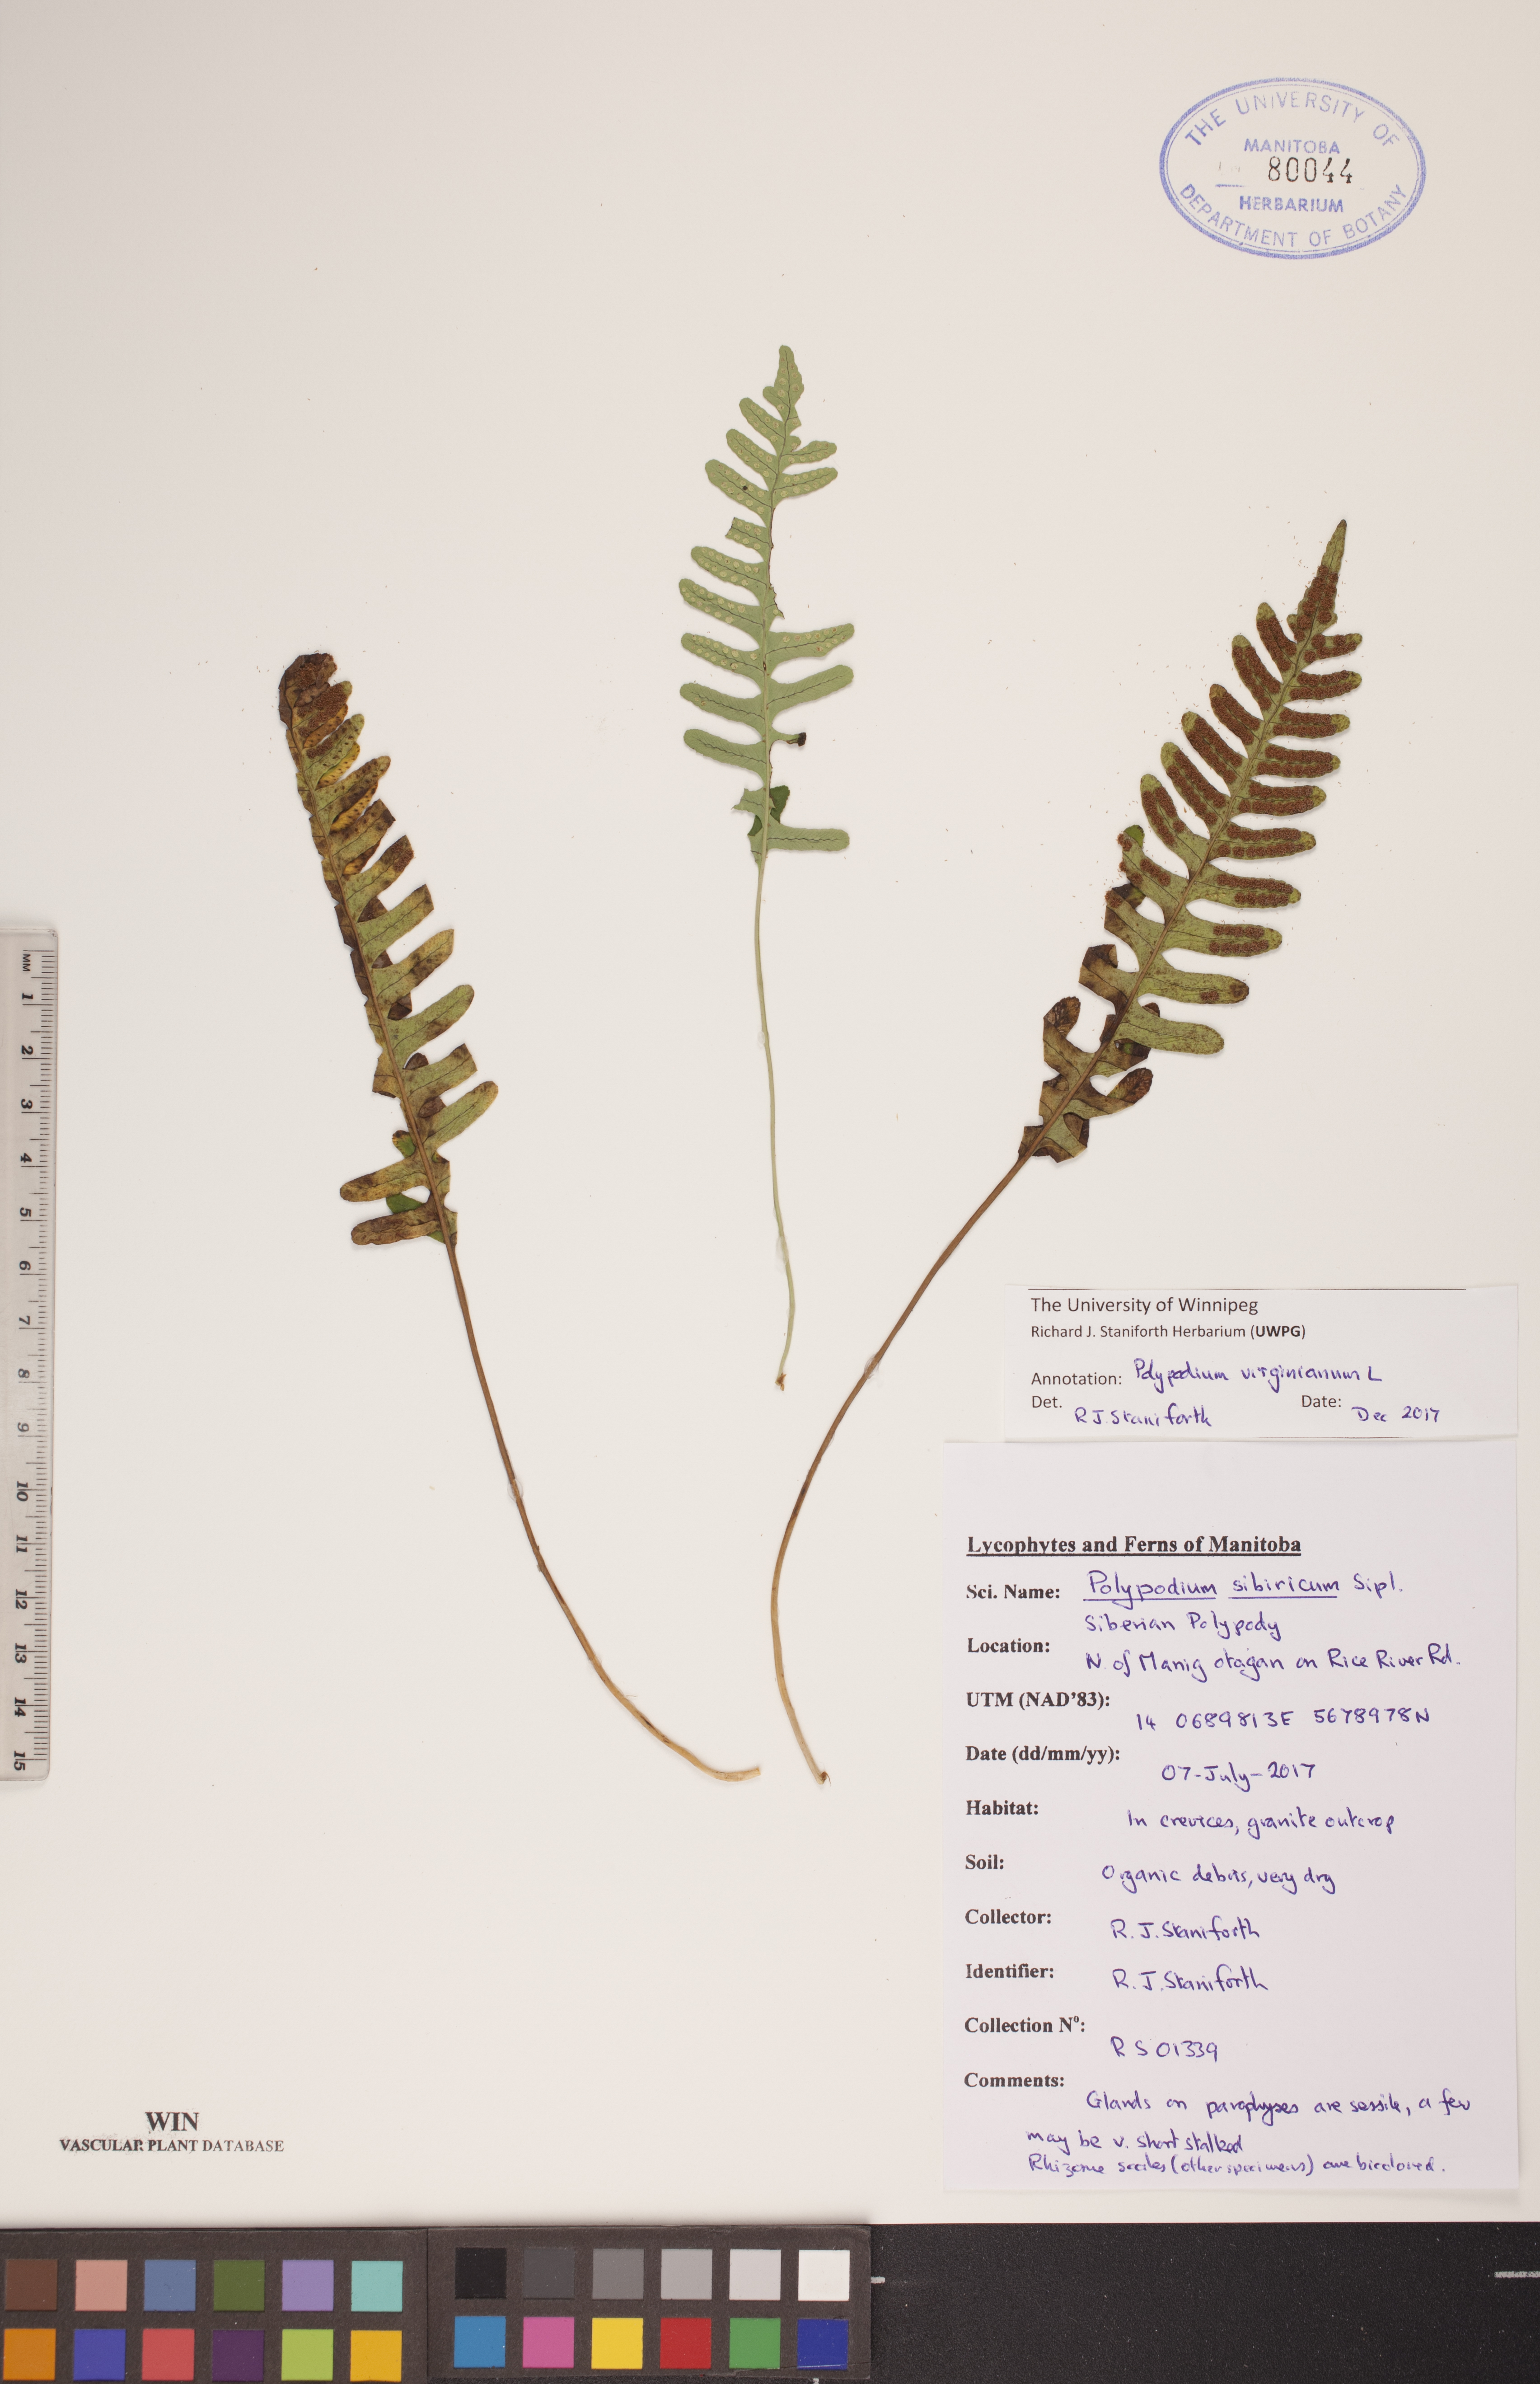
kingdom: Plantae
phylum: Tracheophyta
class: Polypodiopsida
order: Polypodiales
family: Polypodiaceae
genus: Polypodium
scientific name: Polypodium virginianum
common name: American wall fern
